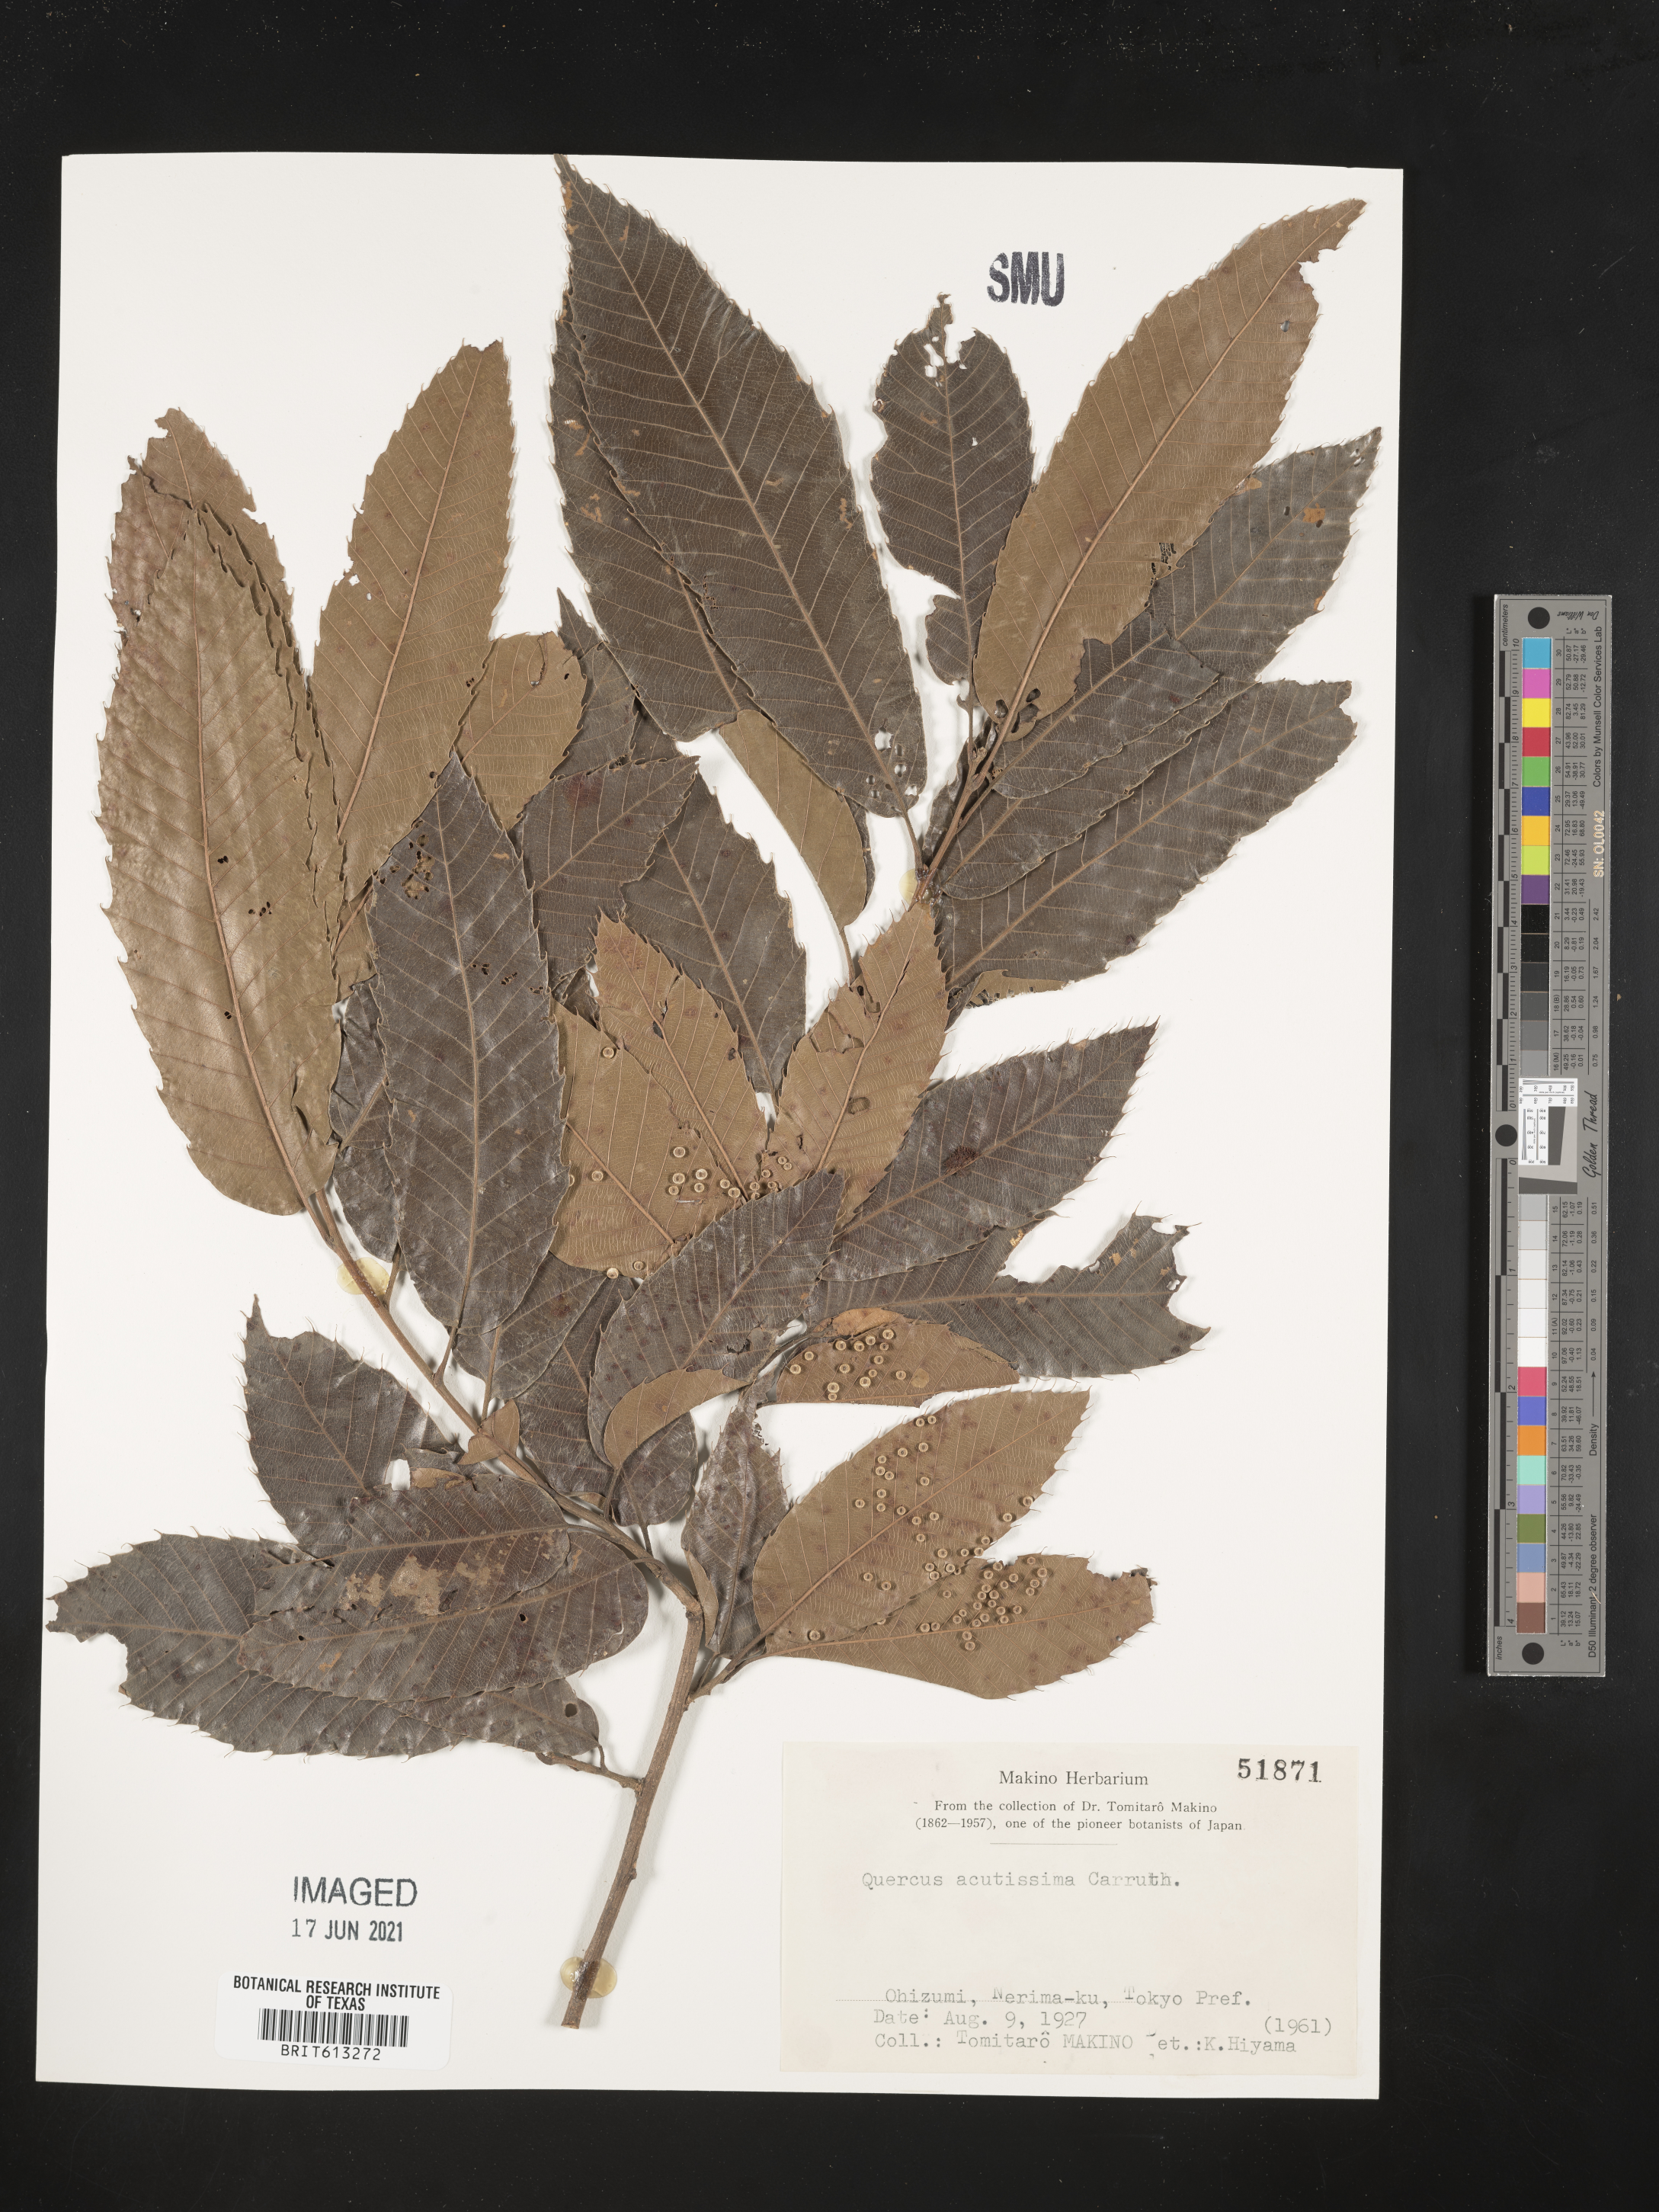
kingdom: Plantae
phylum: Tracheophyta
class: Magnoliopsida
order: Fagales
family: Fagaceae
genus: Quercus
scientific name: Quercus acutissima
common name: Sawtooth oak
